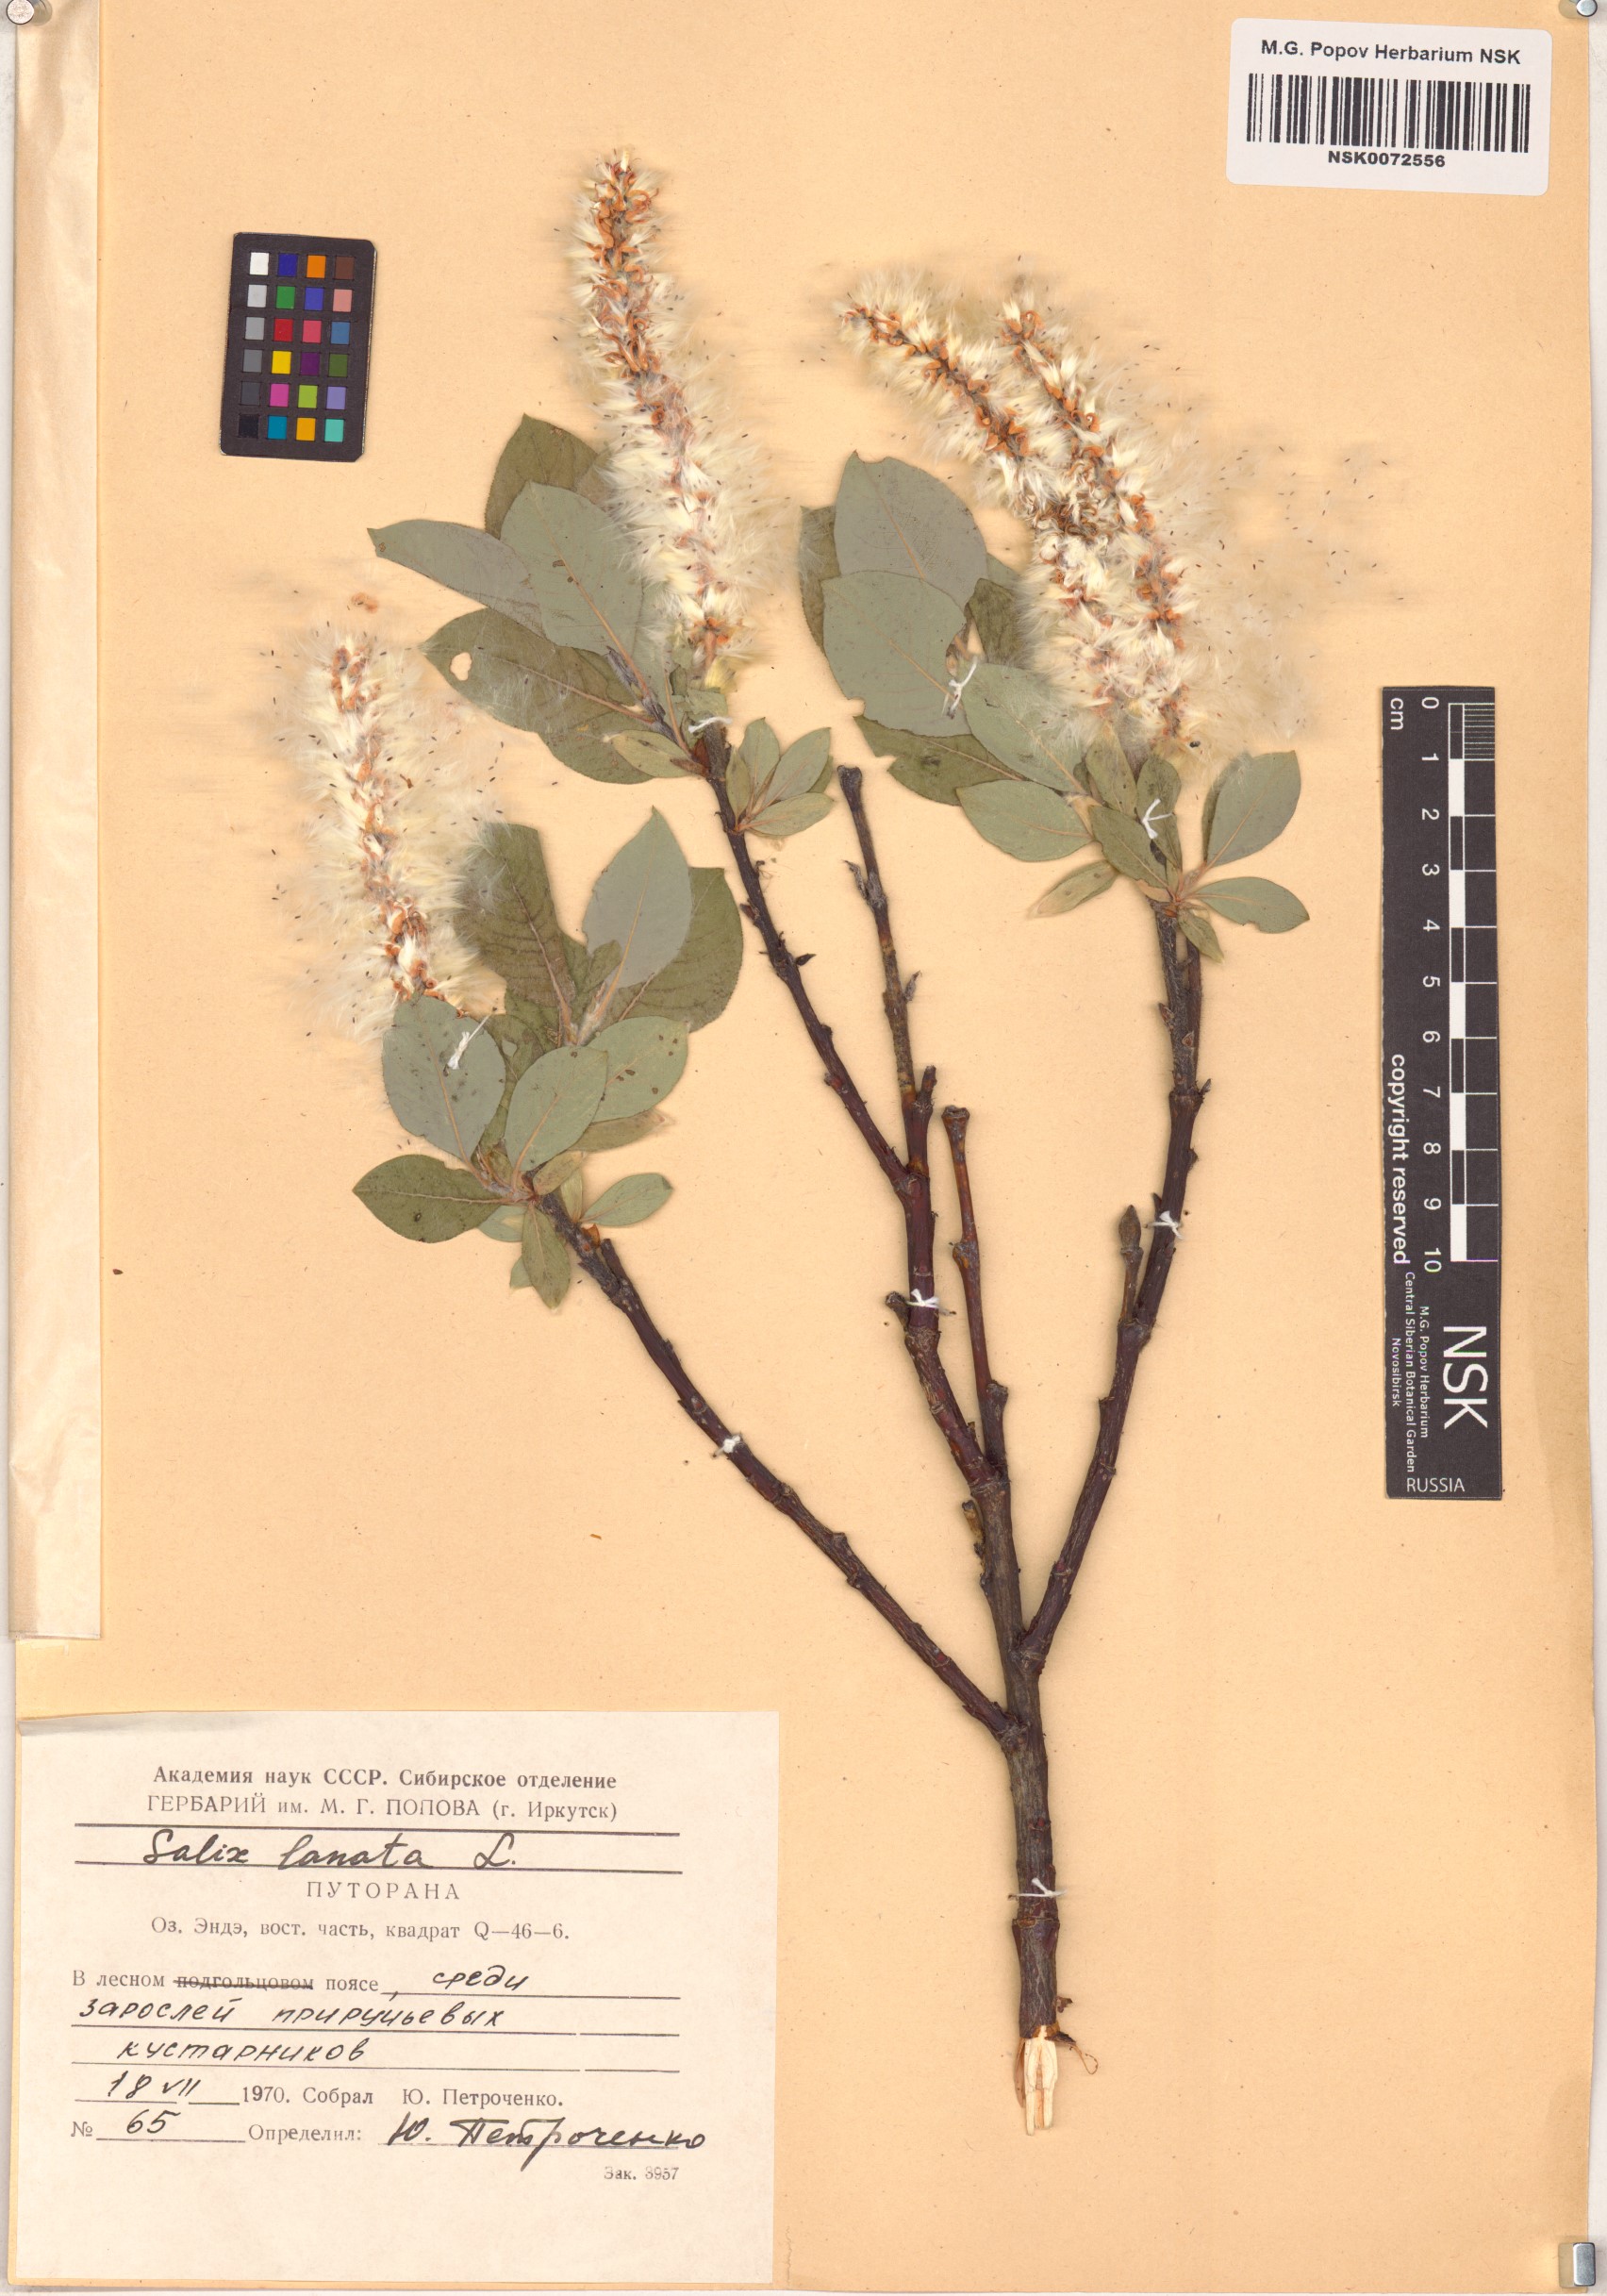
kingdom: Plantae
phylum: Tracheophyta
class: Magnoliopsida
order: Malpighiales
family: Salicaceae
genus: Salix
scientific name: Salix lanata
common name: Woolly willow
